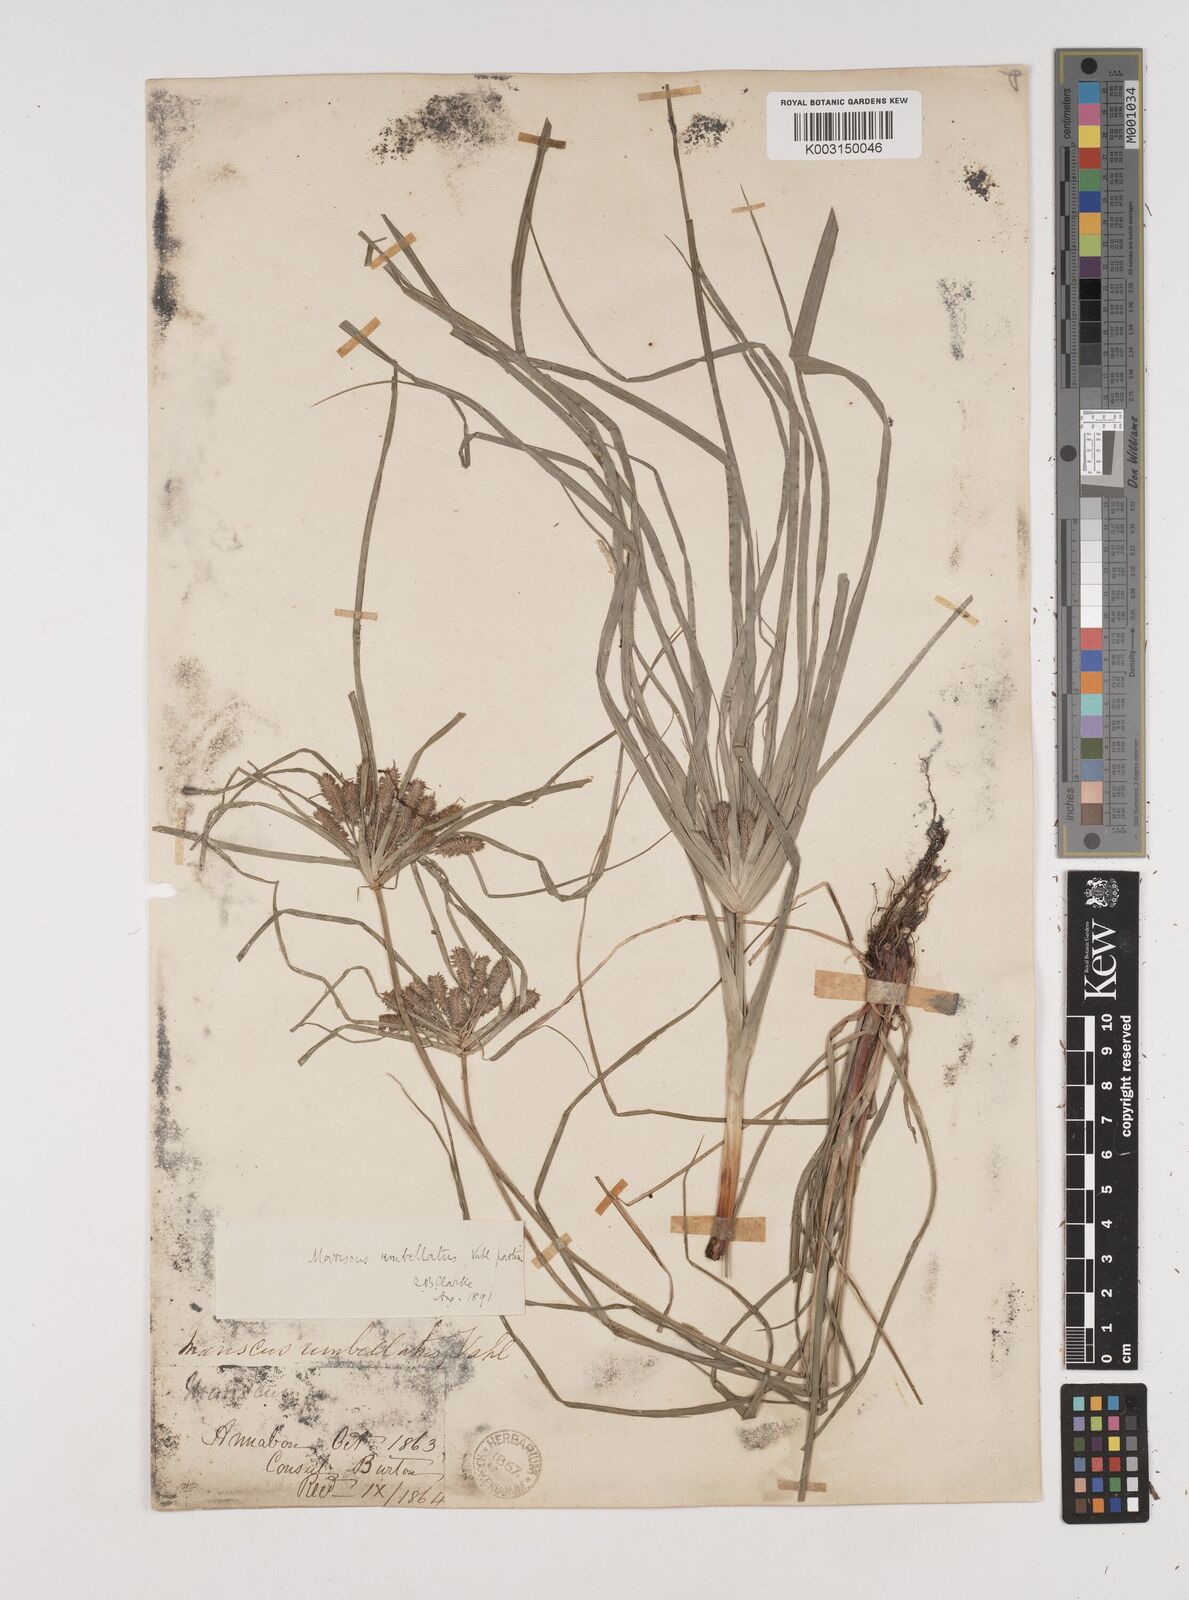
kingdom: Plantae
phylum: Tracheophyta
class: Liliopsida
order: Poales
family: Cyperaceae
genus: Cyperus
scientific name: Cyperus cyperoides
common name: Pacific island flat sedge
